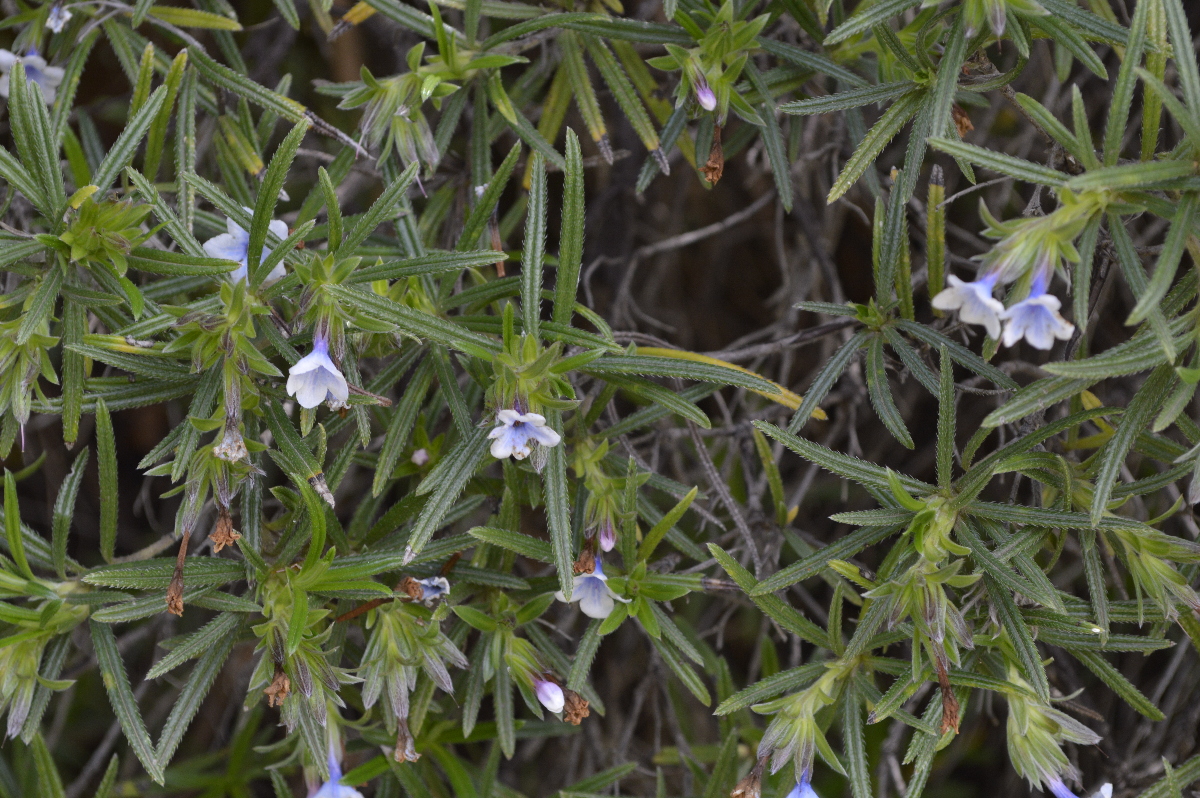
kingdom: Plantae
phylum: Tracheophyta
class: Magnoliopsida
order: Boraginales
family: Boraginaceae
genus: Lithodora
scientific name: Lithodora zahnii
